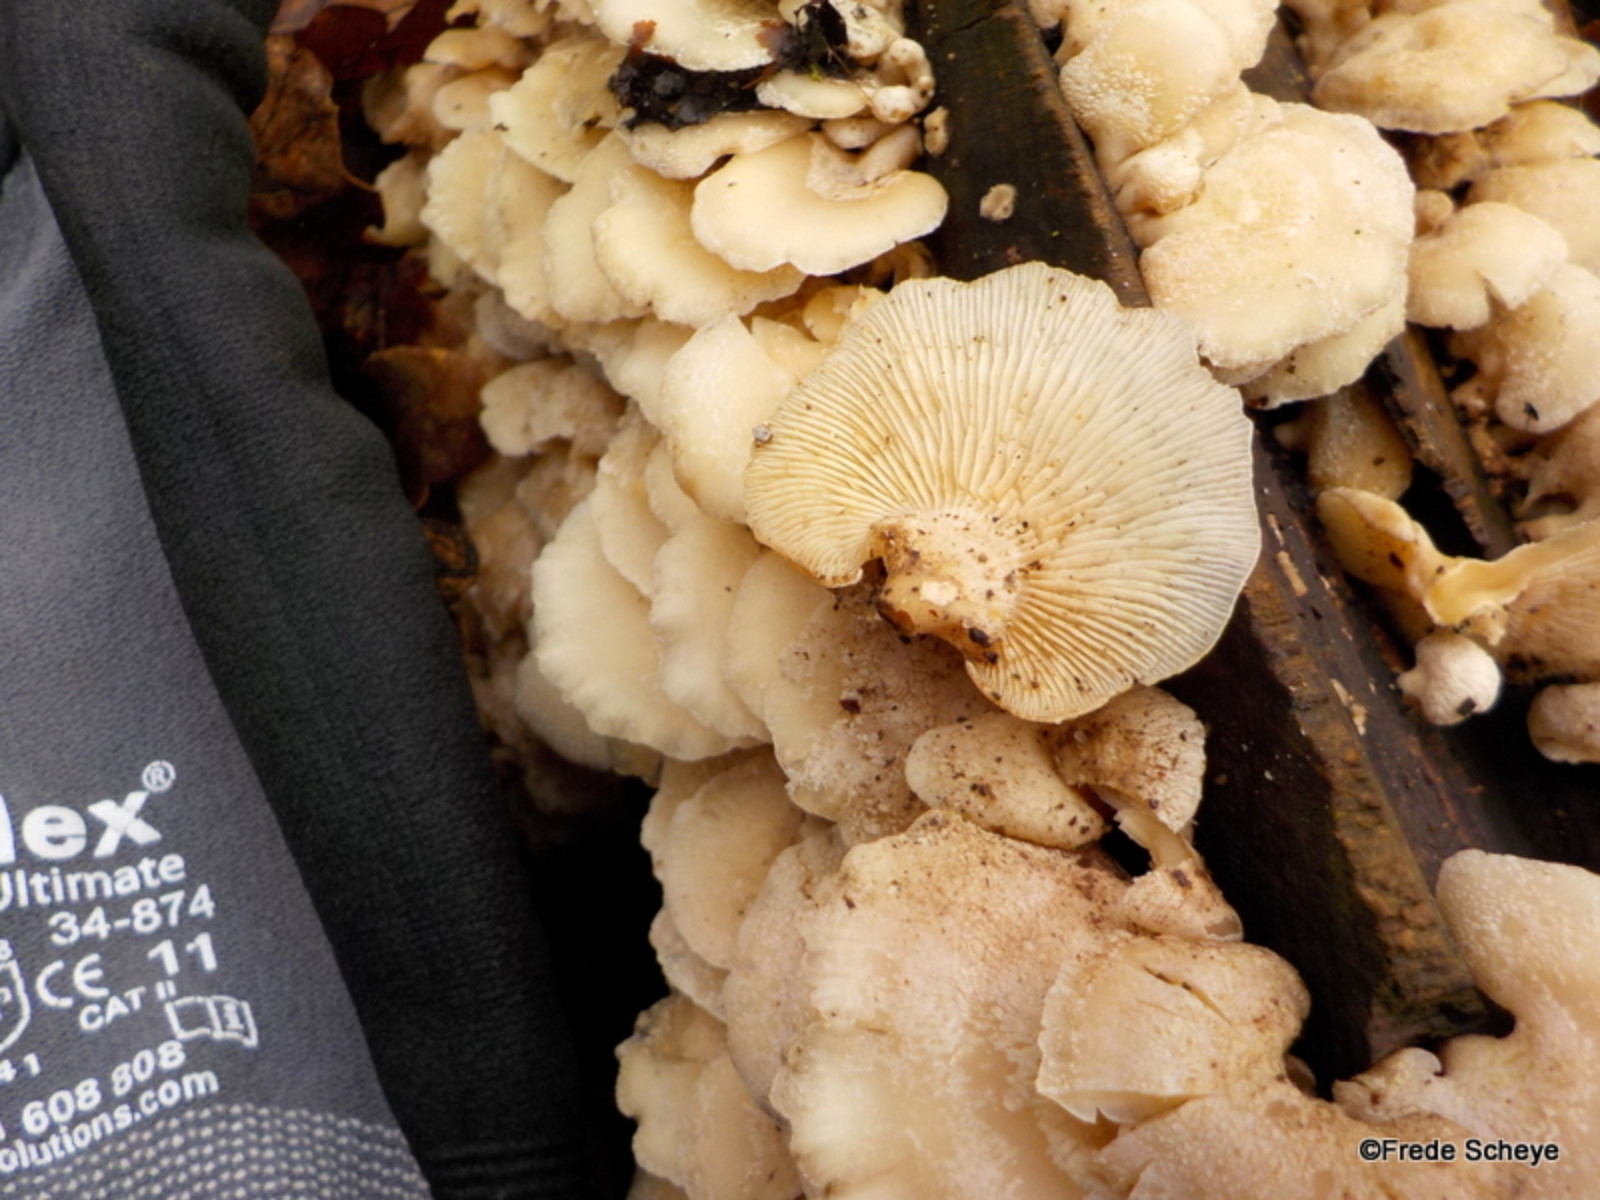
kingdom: Fungi
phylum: Basidiomycota
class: Agaricomycetes
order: Agaricales
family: Mycenaceae
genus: Panellus
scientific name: Panellus stipticus
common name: kliddet epaulethat
